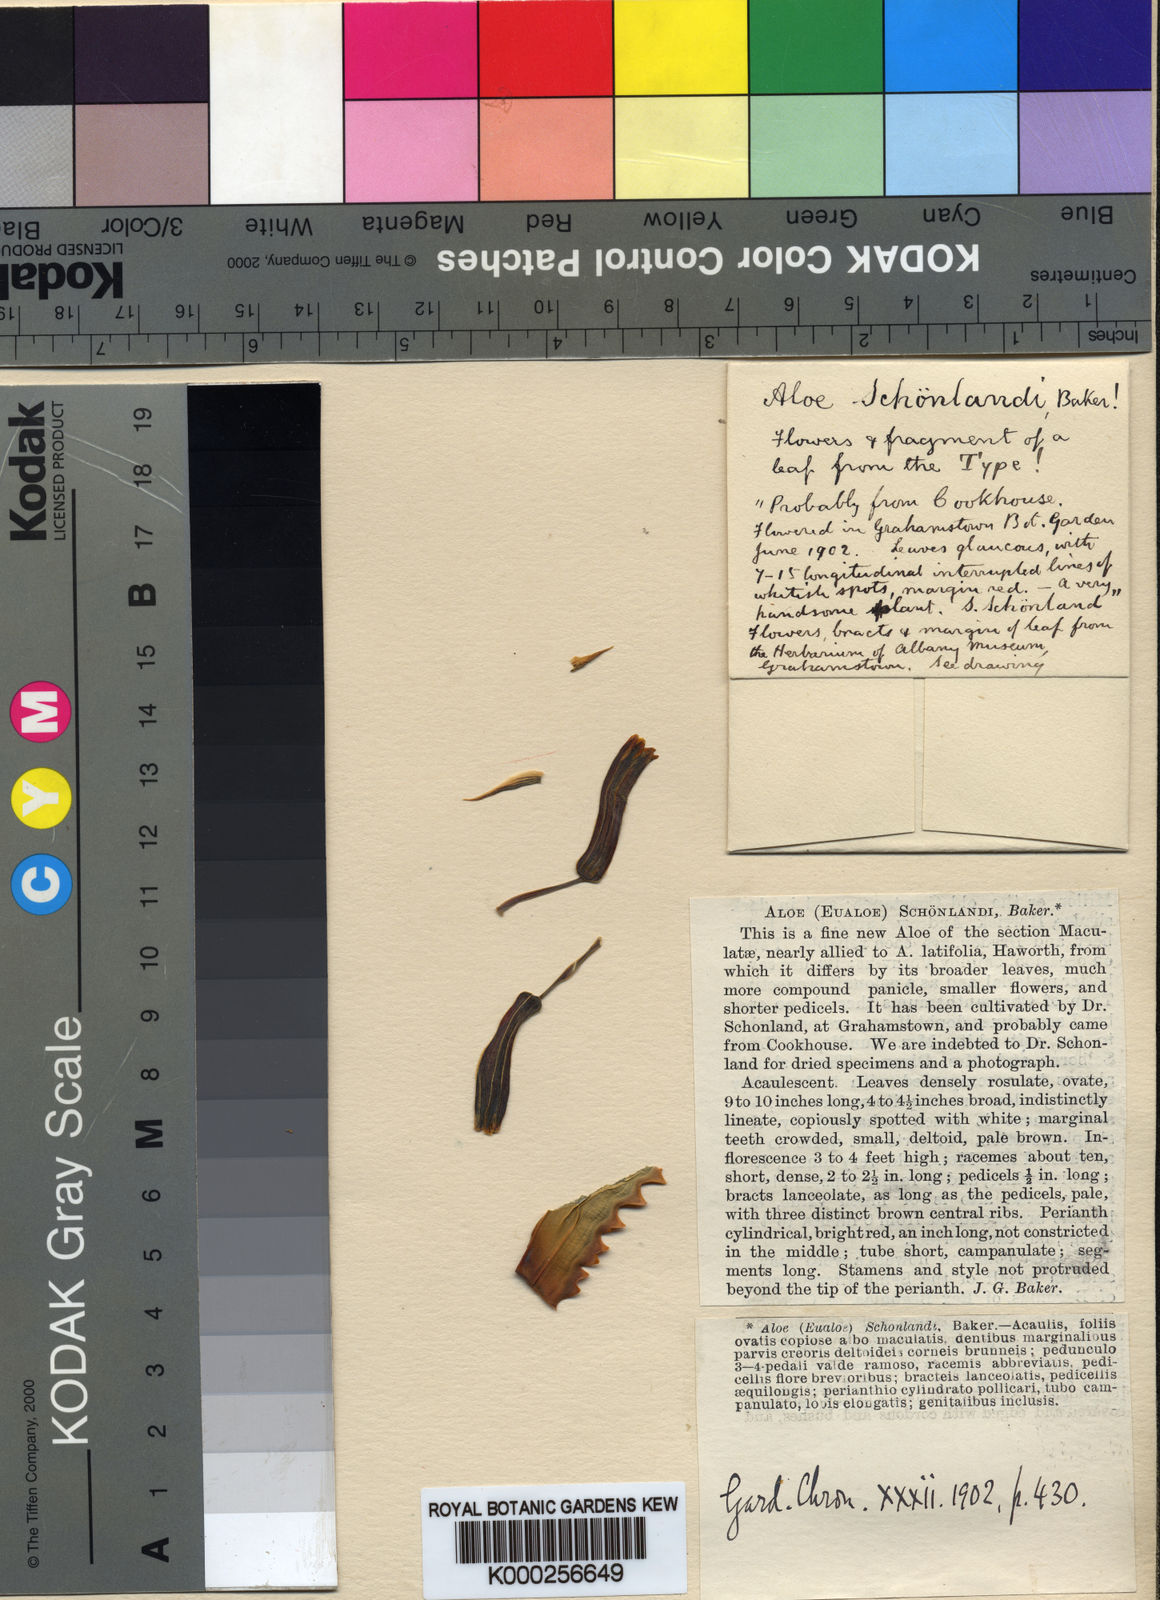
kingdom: Plantae
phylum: Tracheophyta
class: Liliopsida
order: Asparagales
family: Asphodelaceae
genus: Aloe
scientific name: Aloe
